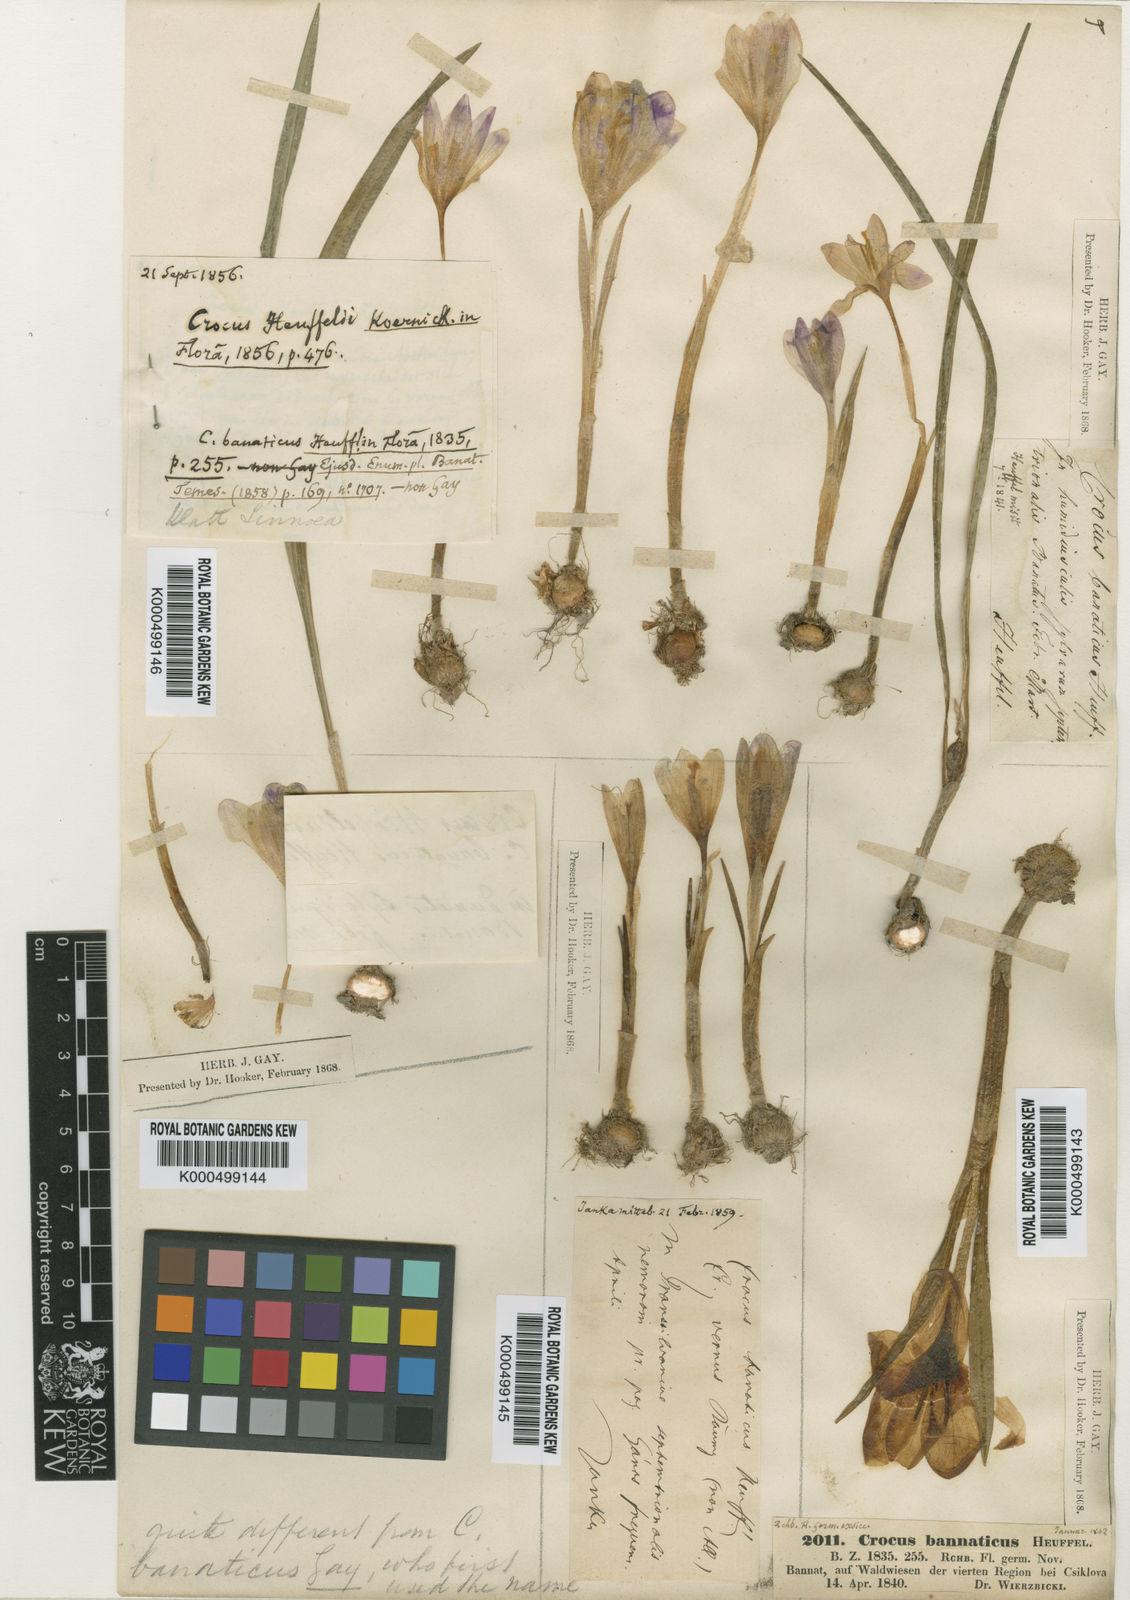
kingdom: Plantae
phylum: Tracheophyta
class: Liliopsida
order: Asparagales
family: Iridaceae
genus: Crocus
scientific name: Crocus
